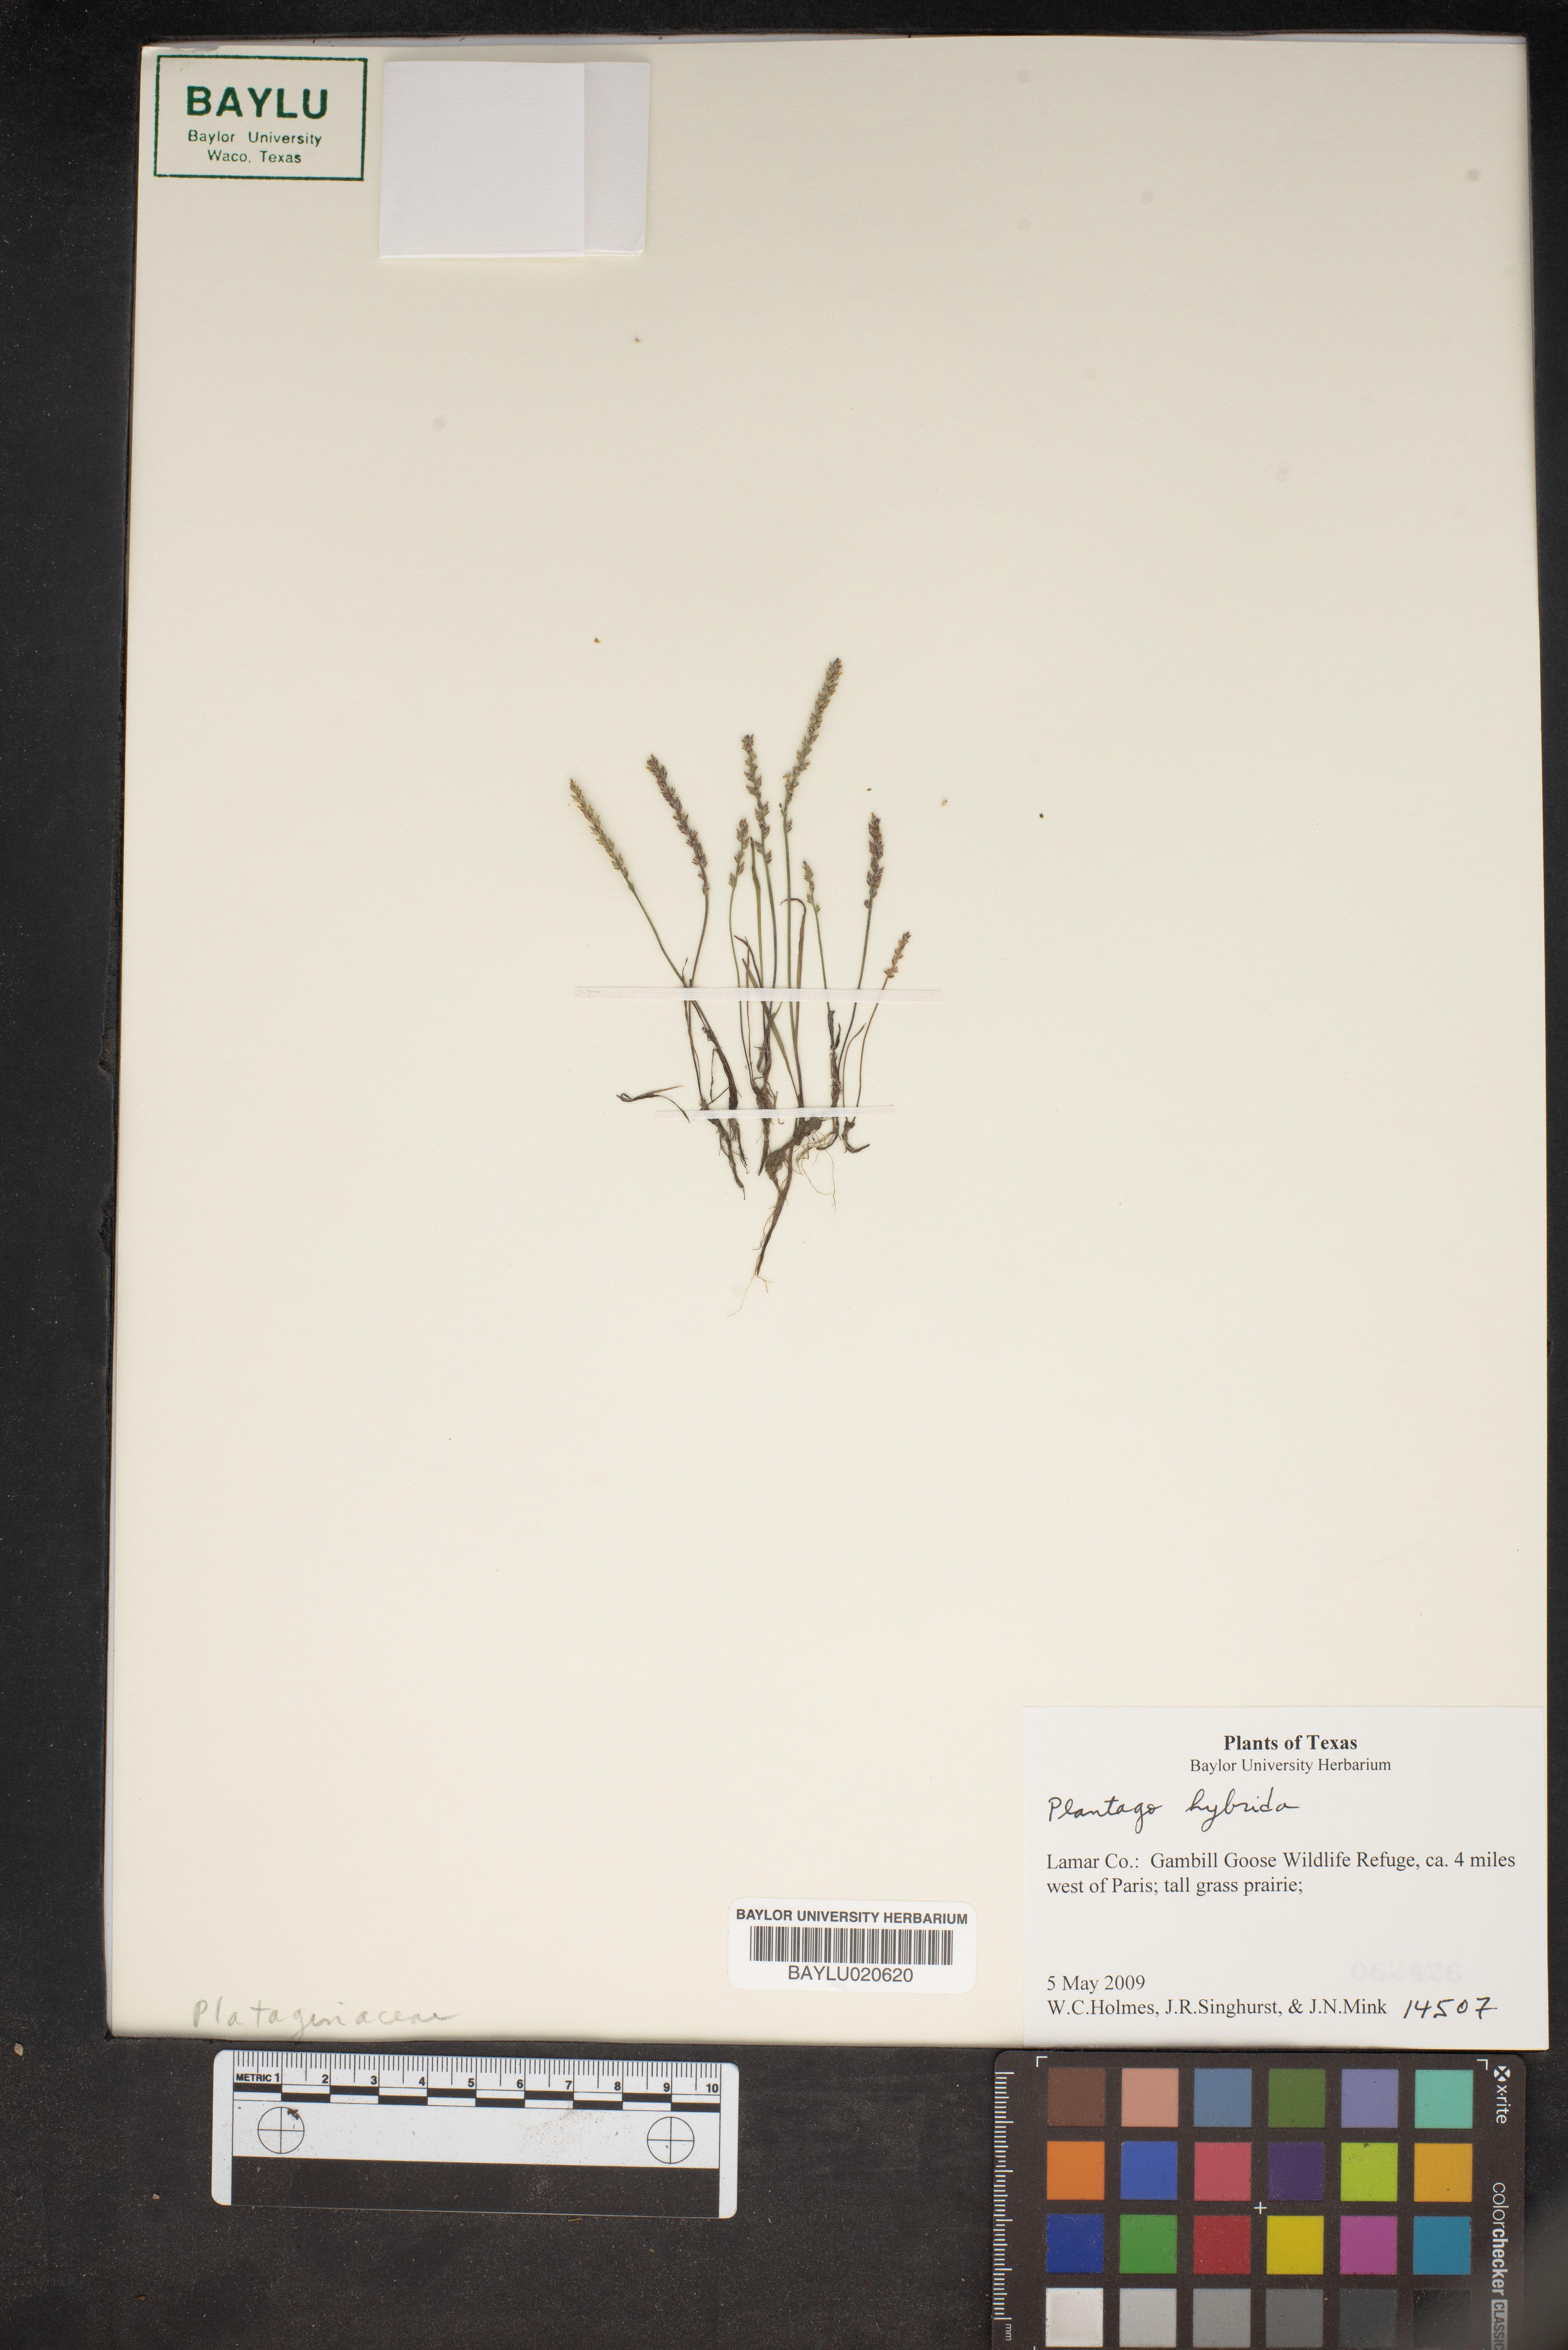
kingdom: Plantae
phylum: Tracheophyta
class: Magnoliopsida
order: Lamiales
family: Plantaginaceae
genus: Plantago
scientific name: Plantago pusilla
